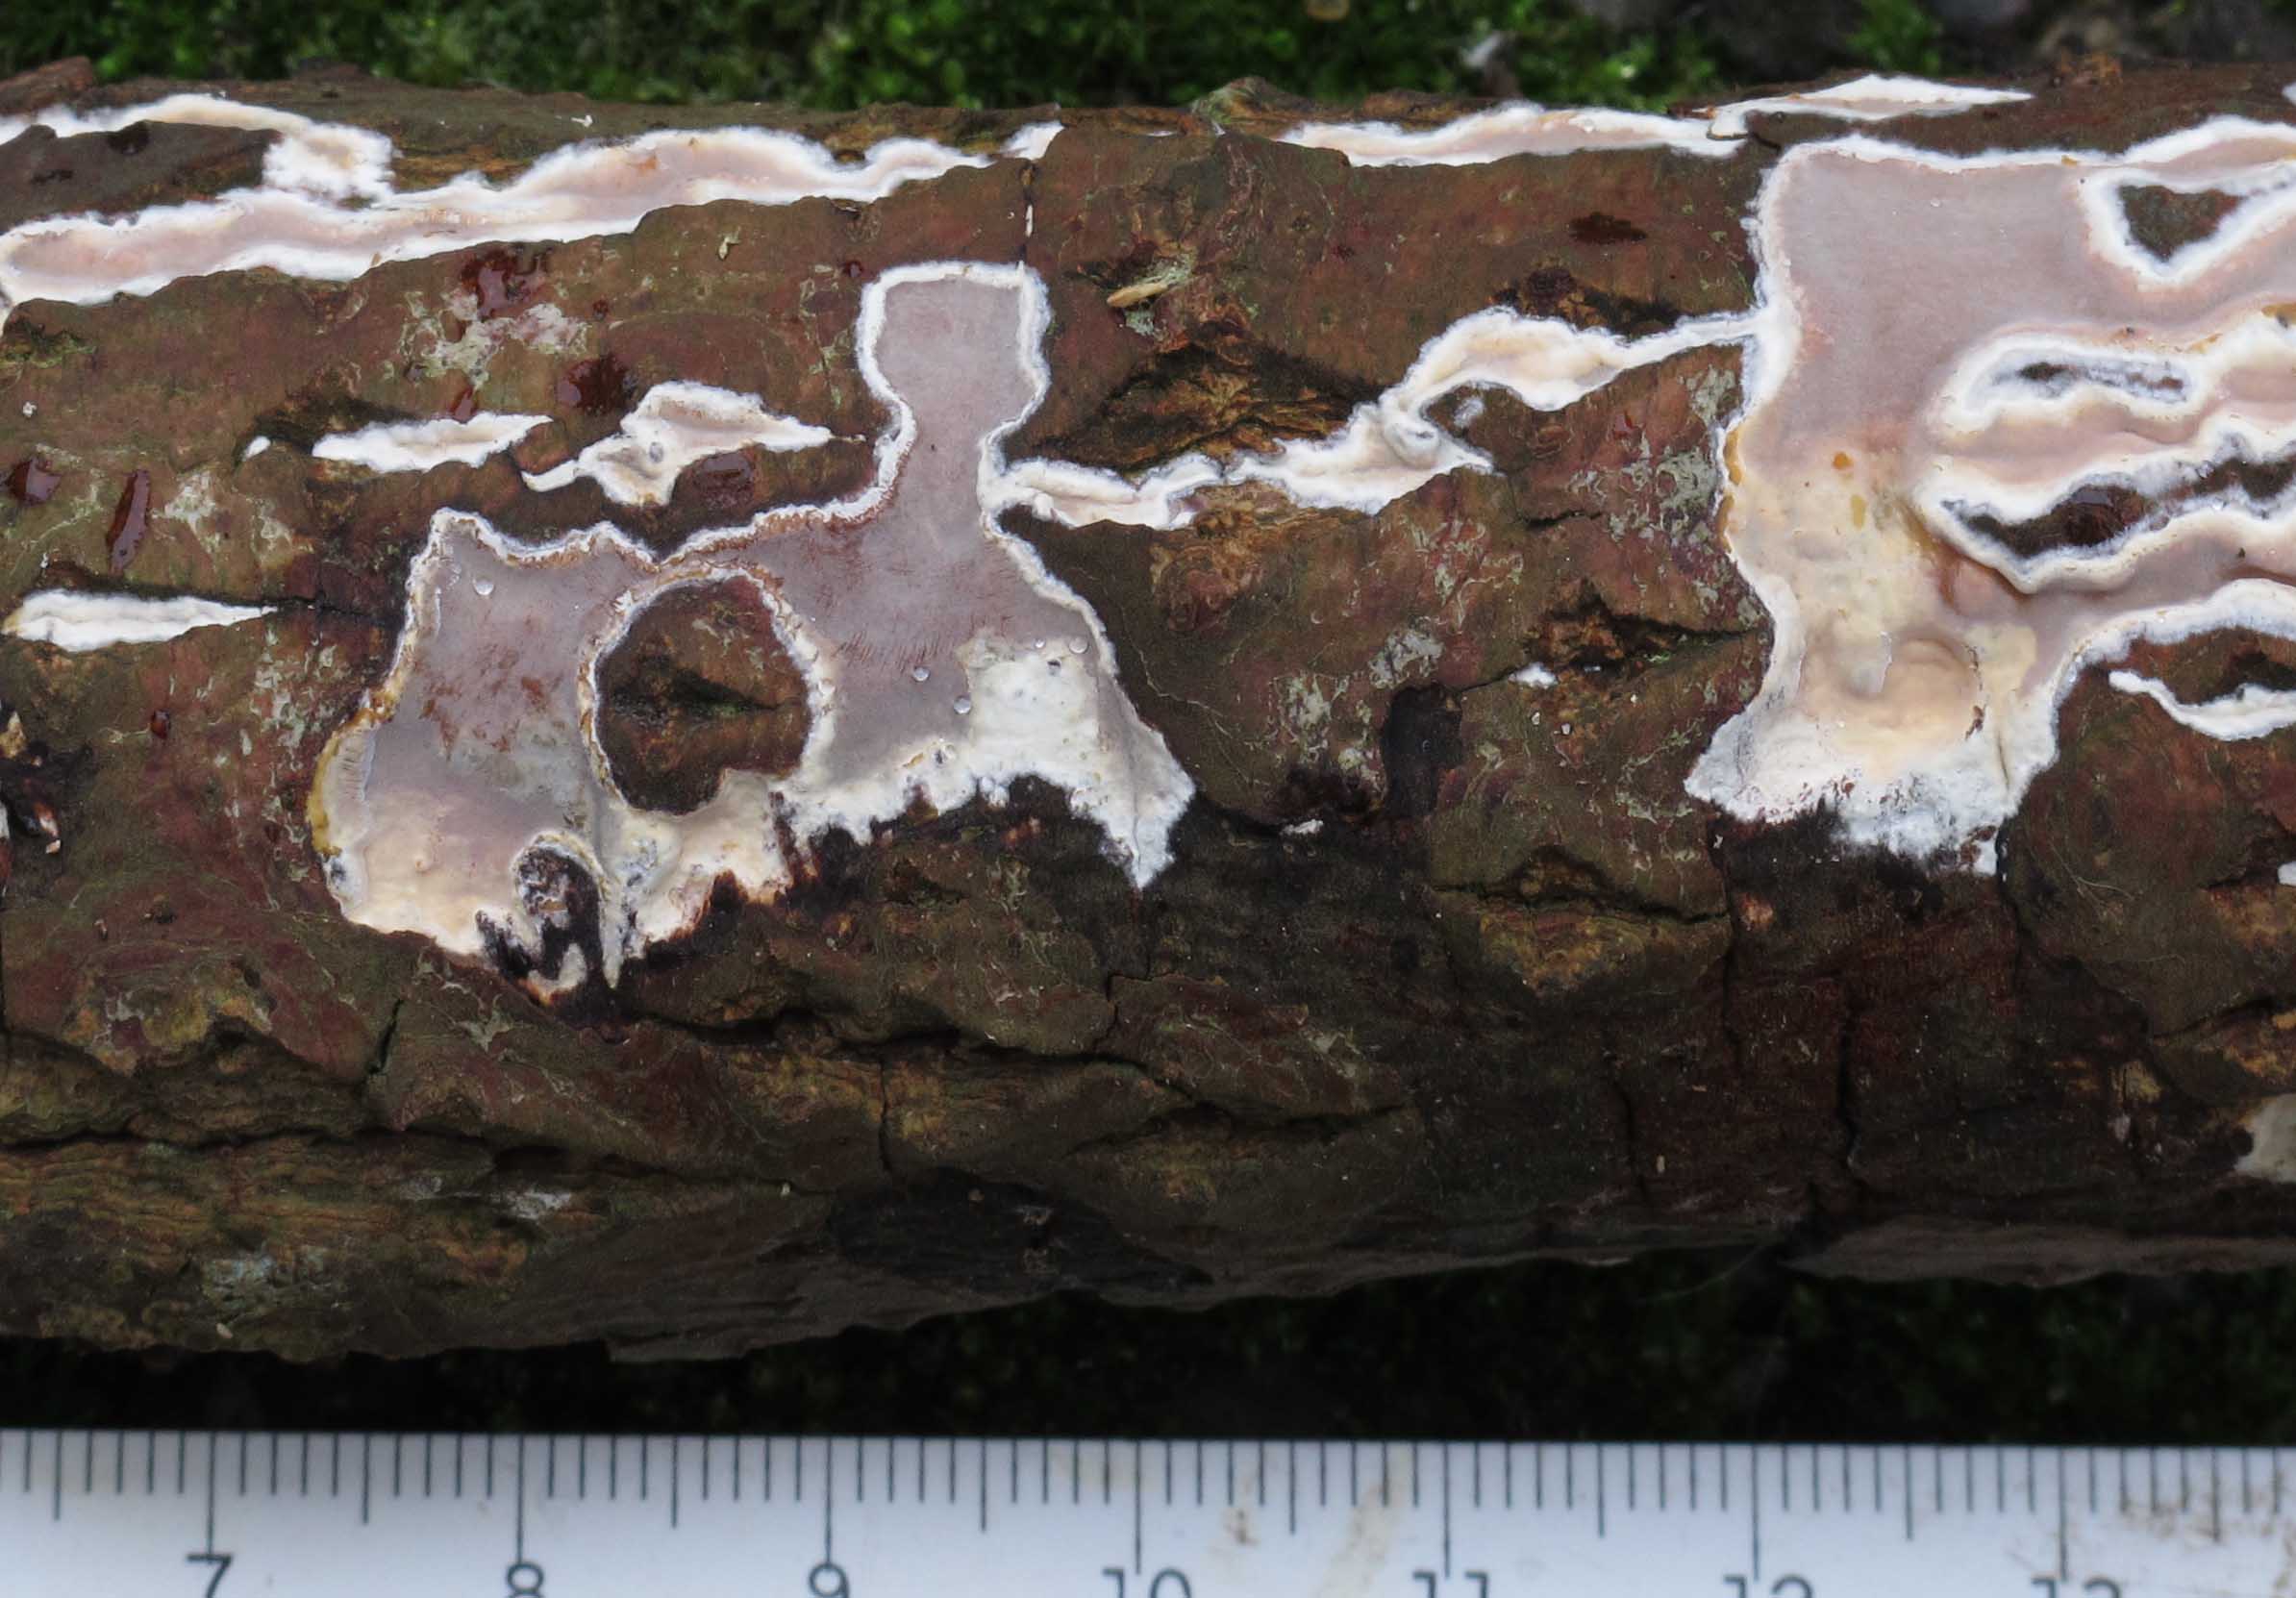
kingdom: Fungi
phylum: Basidiomycota
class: Agaricomycetes
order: Russulales
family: Peniophoraceae
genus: Scytinostroma
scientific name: Scytinostroma hemidichophyticum
